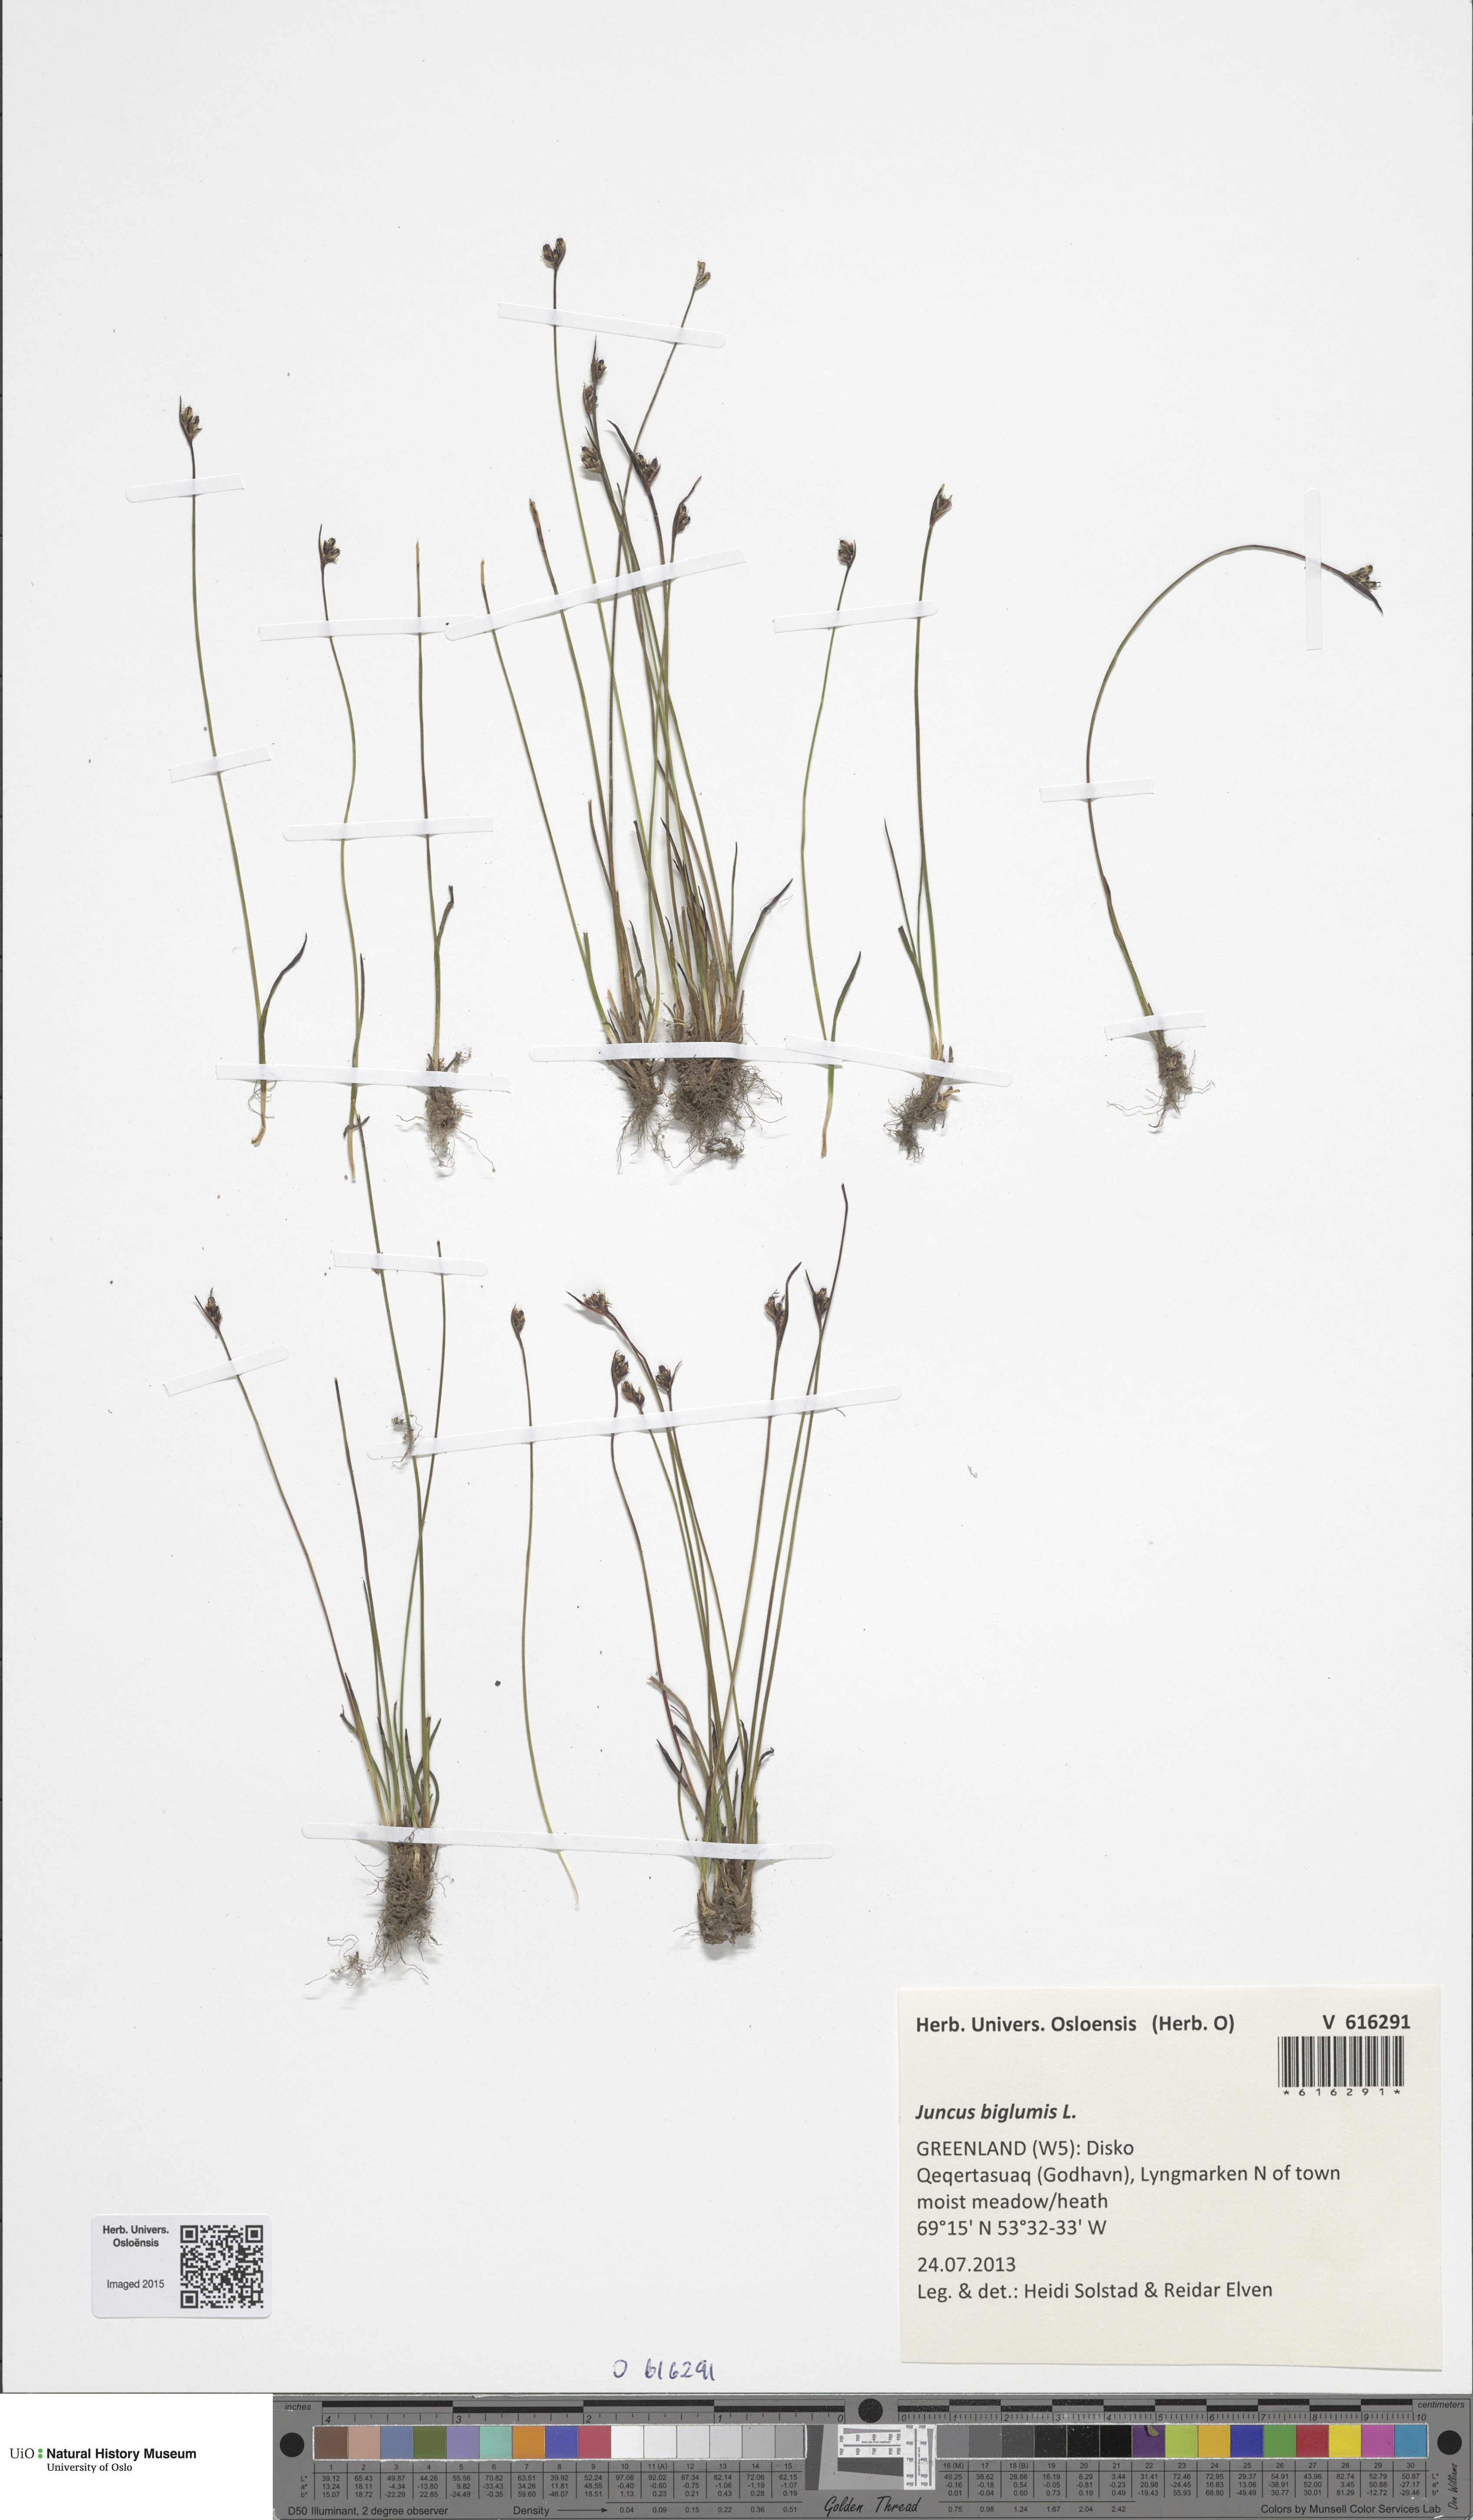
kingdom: Plantae
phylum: Tracheophyta
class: Liliopsida
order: Poales
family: Juncaceae
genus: Juncus
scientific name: Juncus biglumis
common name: Two-flowered rush
